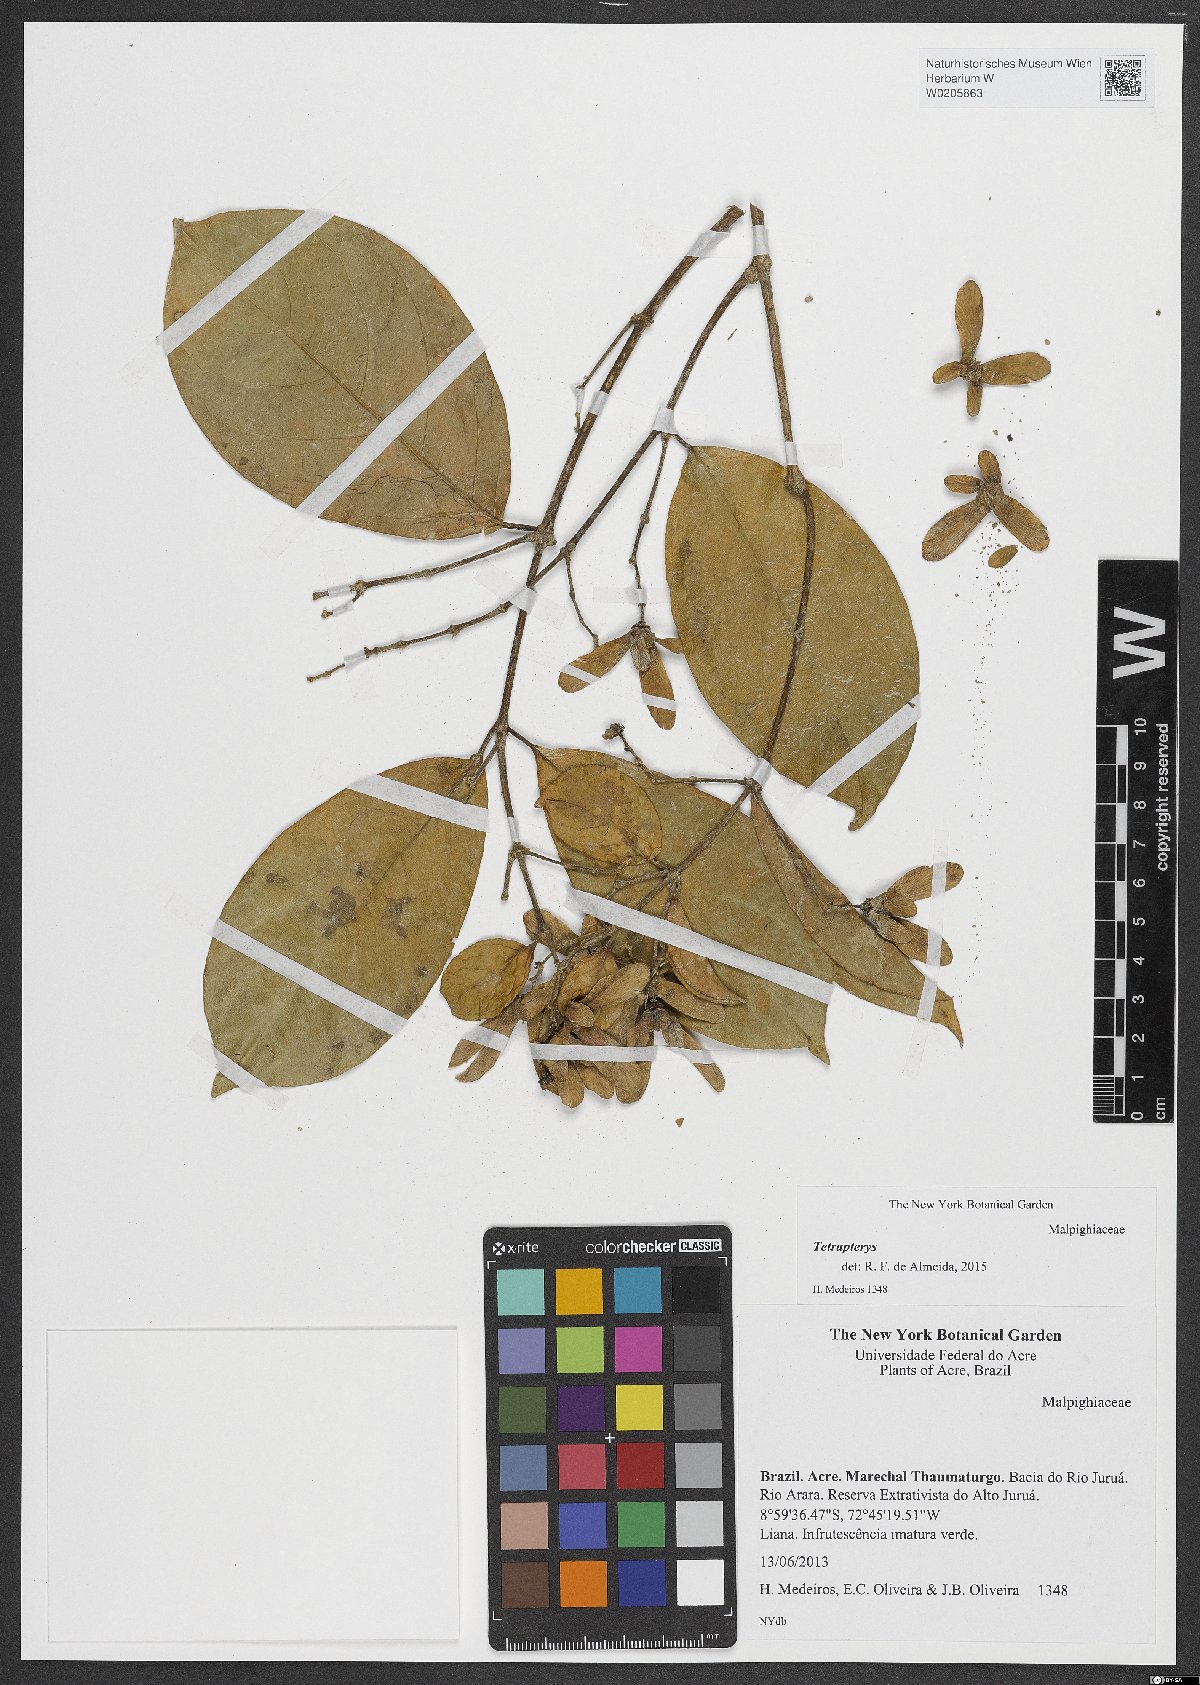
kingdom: Plantae
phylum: Tracheophyta
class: Magnoliopsida
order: Malpighiales
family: Malpighiaceae
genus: Tetrapterys
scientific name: Tetrapterys
